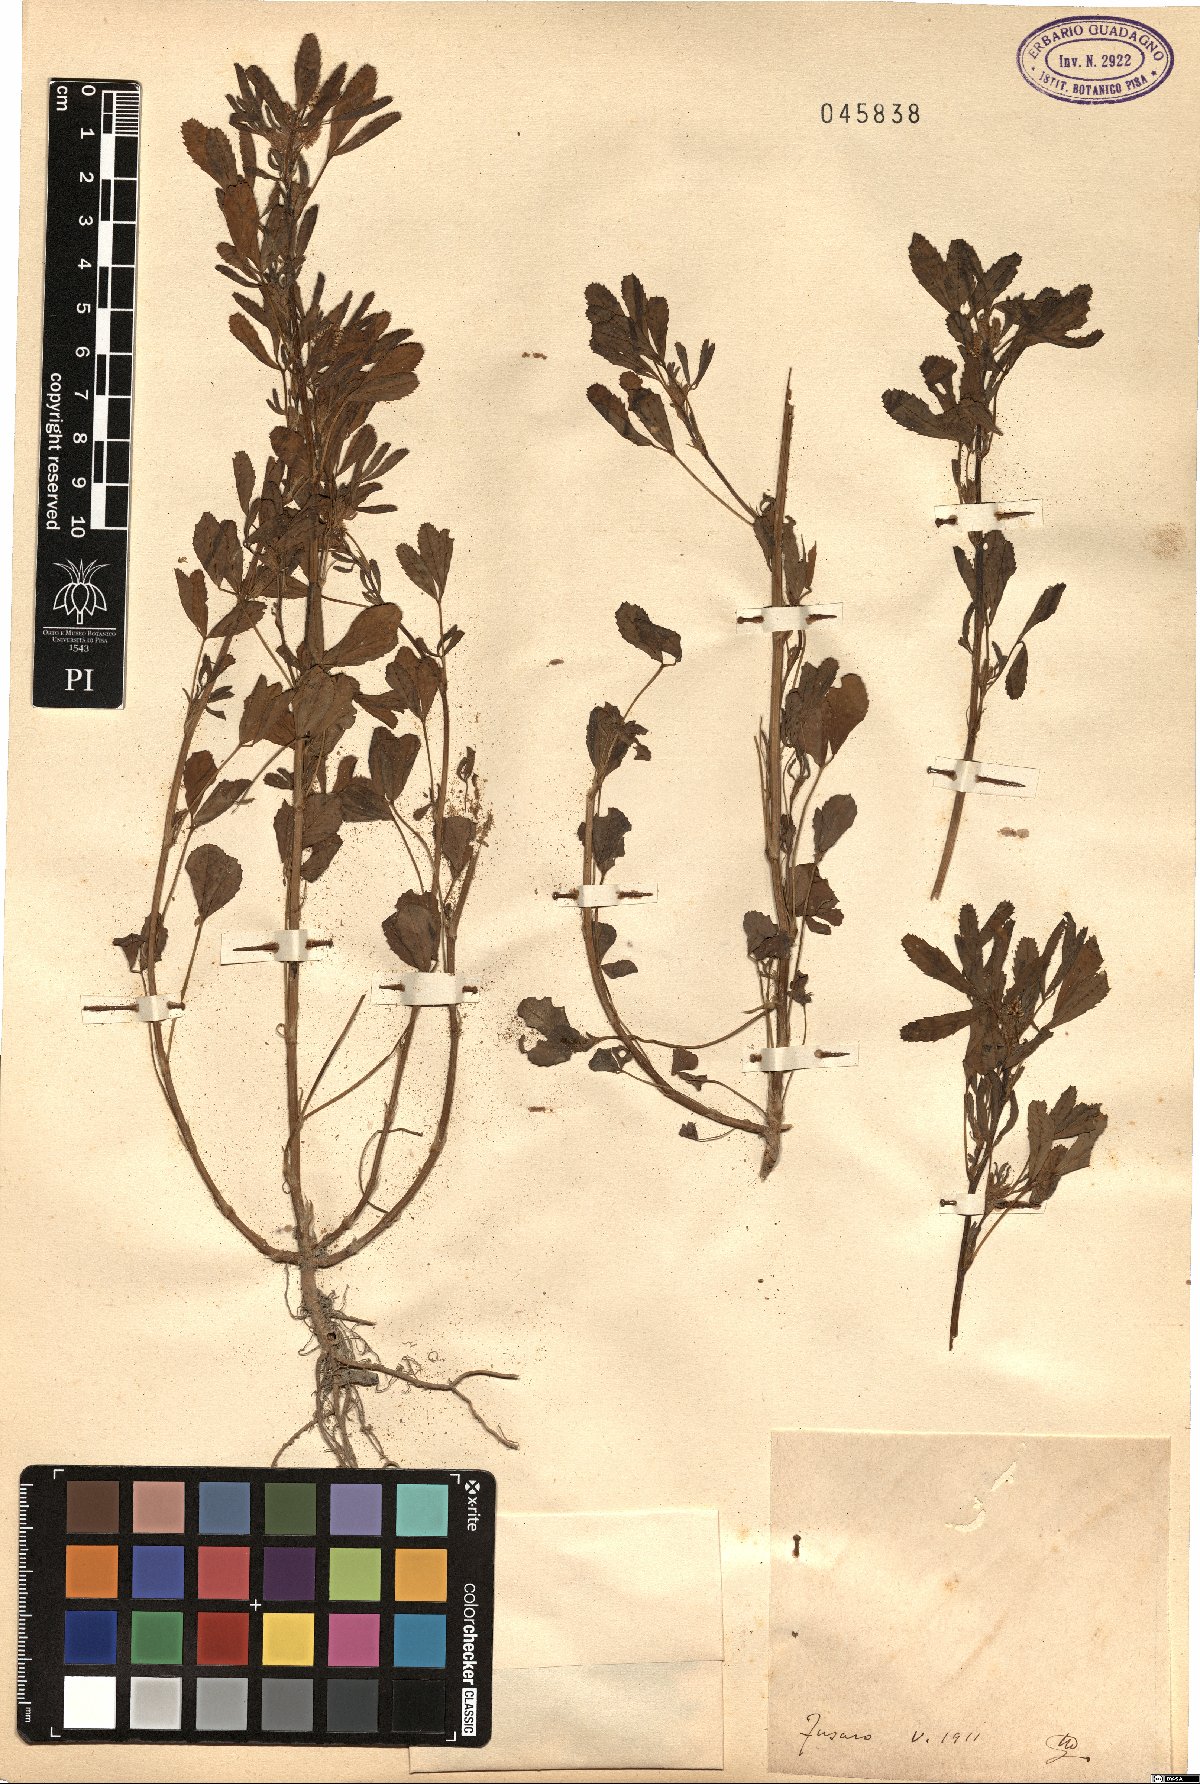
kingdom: Plantae
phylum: Tracheophyta
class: Magnoliopsida
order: Fabales
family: Fabaceae
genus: Melilotus
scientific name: Melilotus
